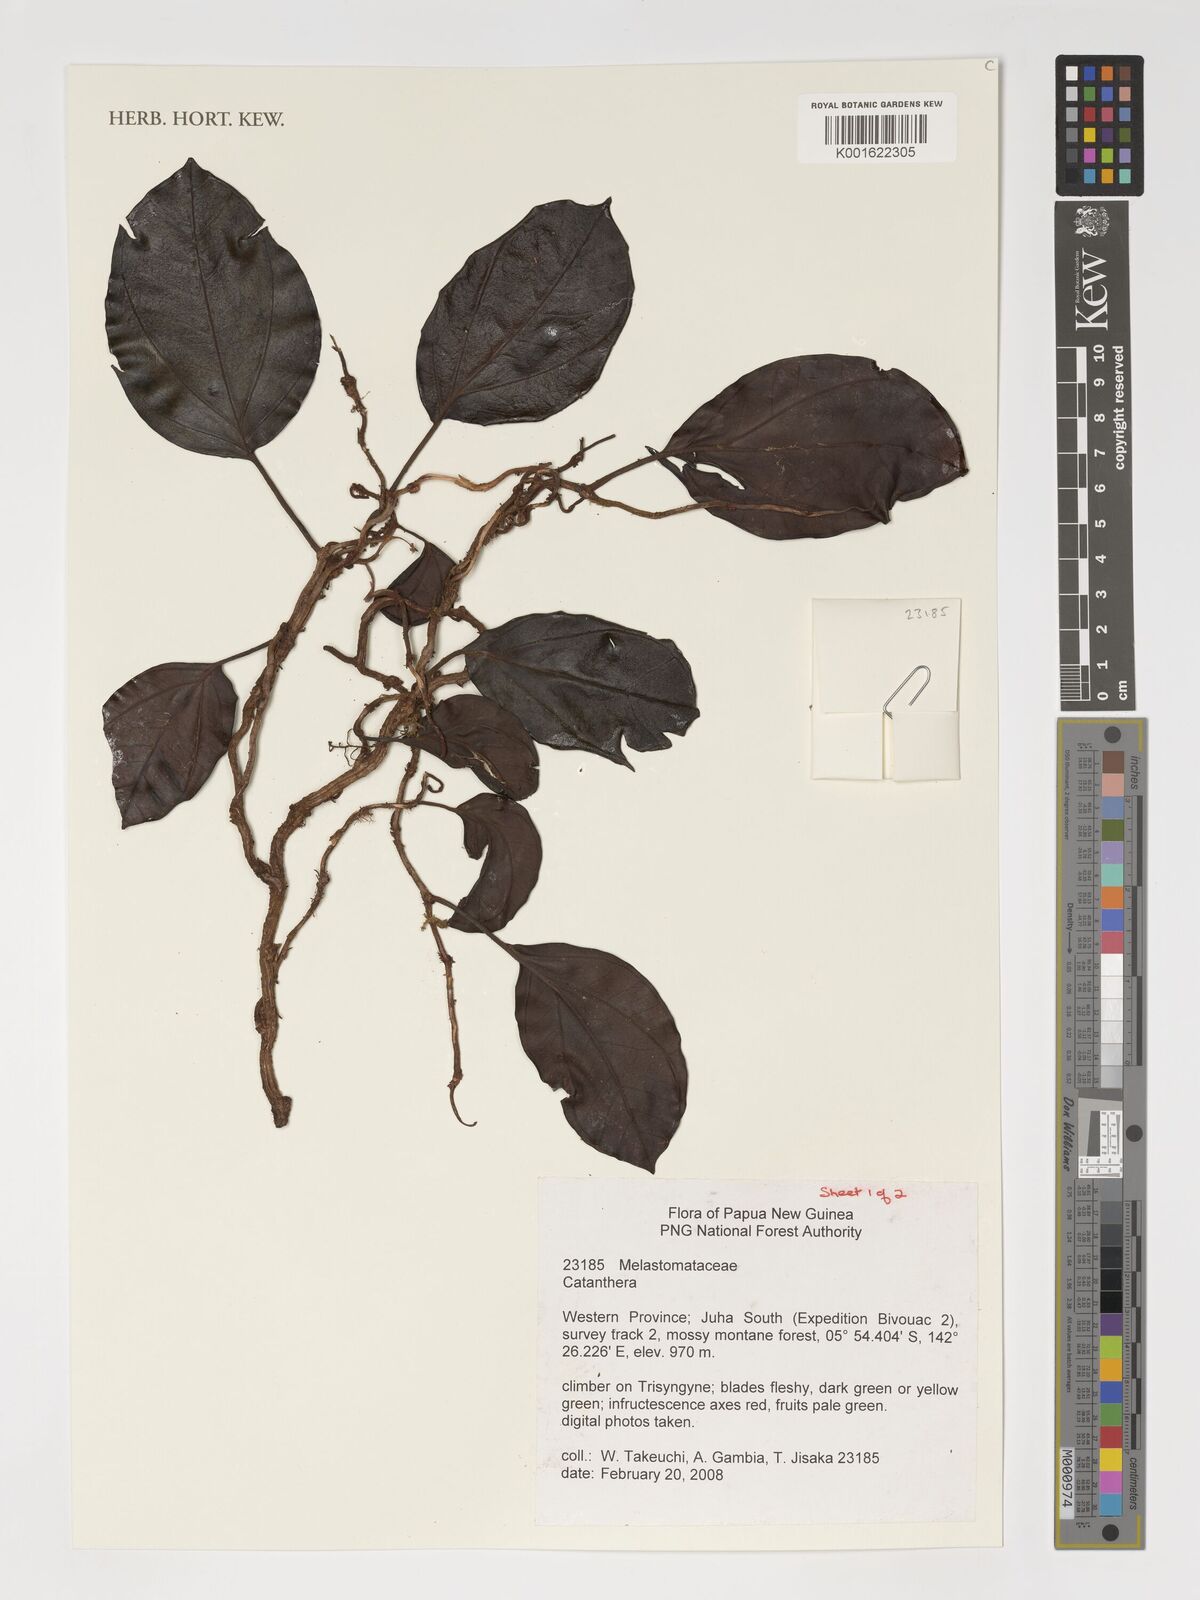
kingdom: Plantae
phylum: Tracheophyta
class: Magnoliopsida
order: Myrtales
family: Melastomataceae
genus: Catanthera
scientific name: Catanthera
